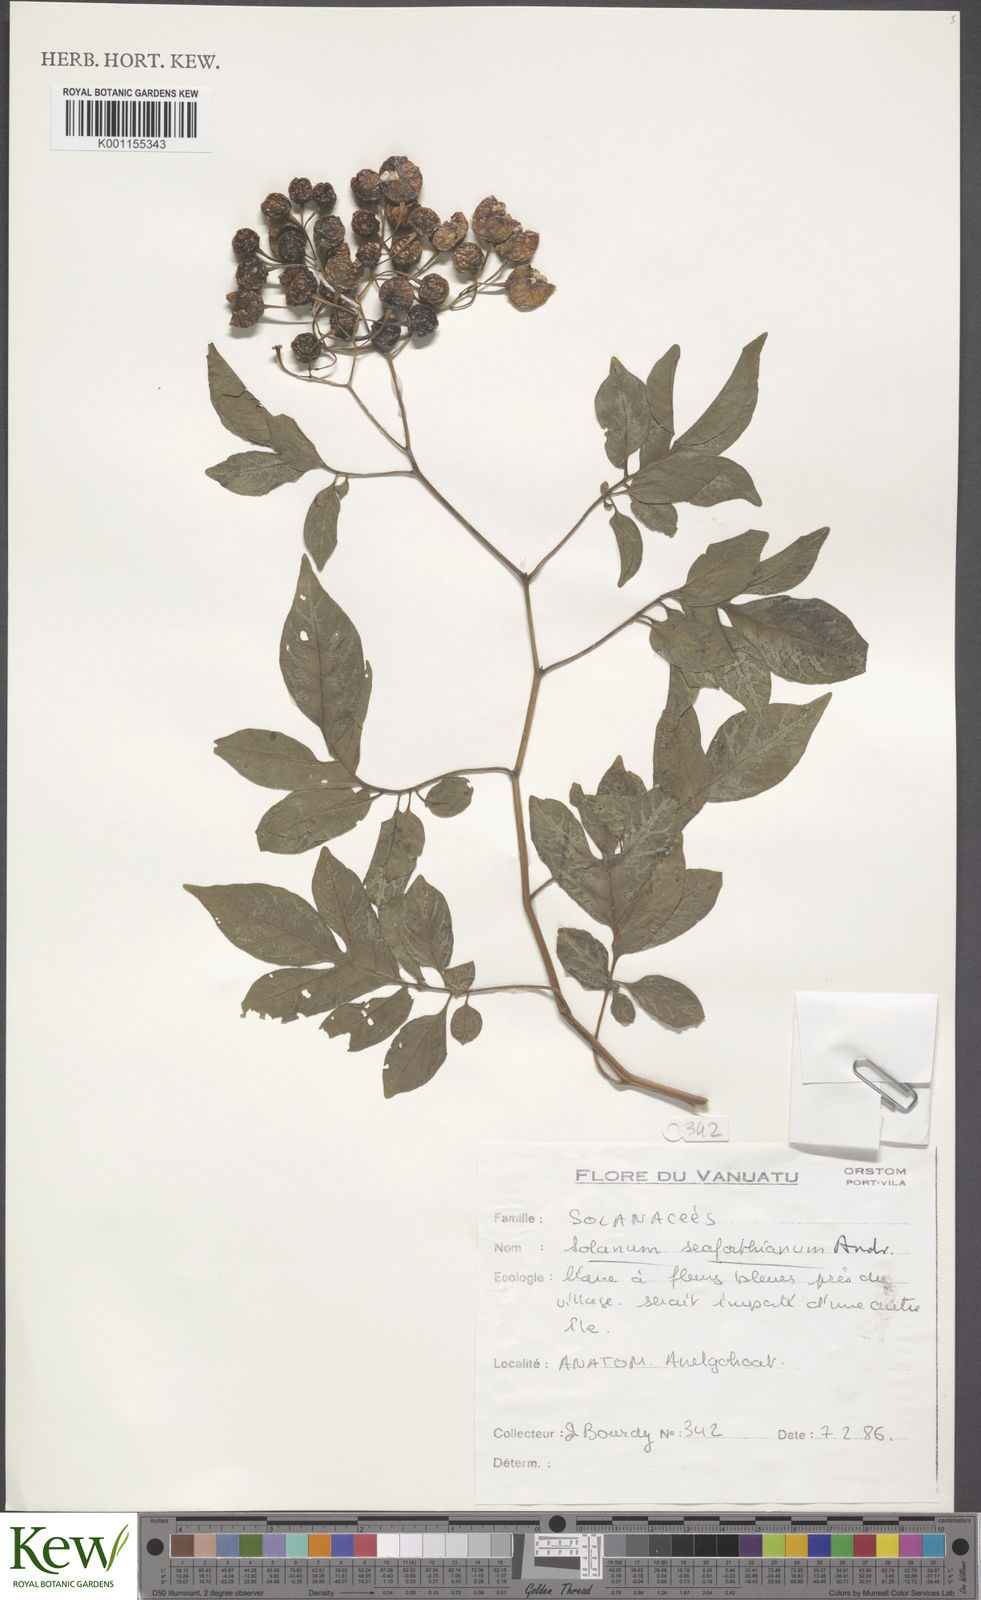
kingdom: Plantae
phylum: Tracheophyta
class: Magnoliopsida
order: Solanales
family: Solanaceae
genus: Solanum
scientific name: Solanum seaforthianum
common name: Brazilian nightshade
